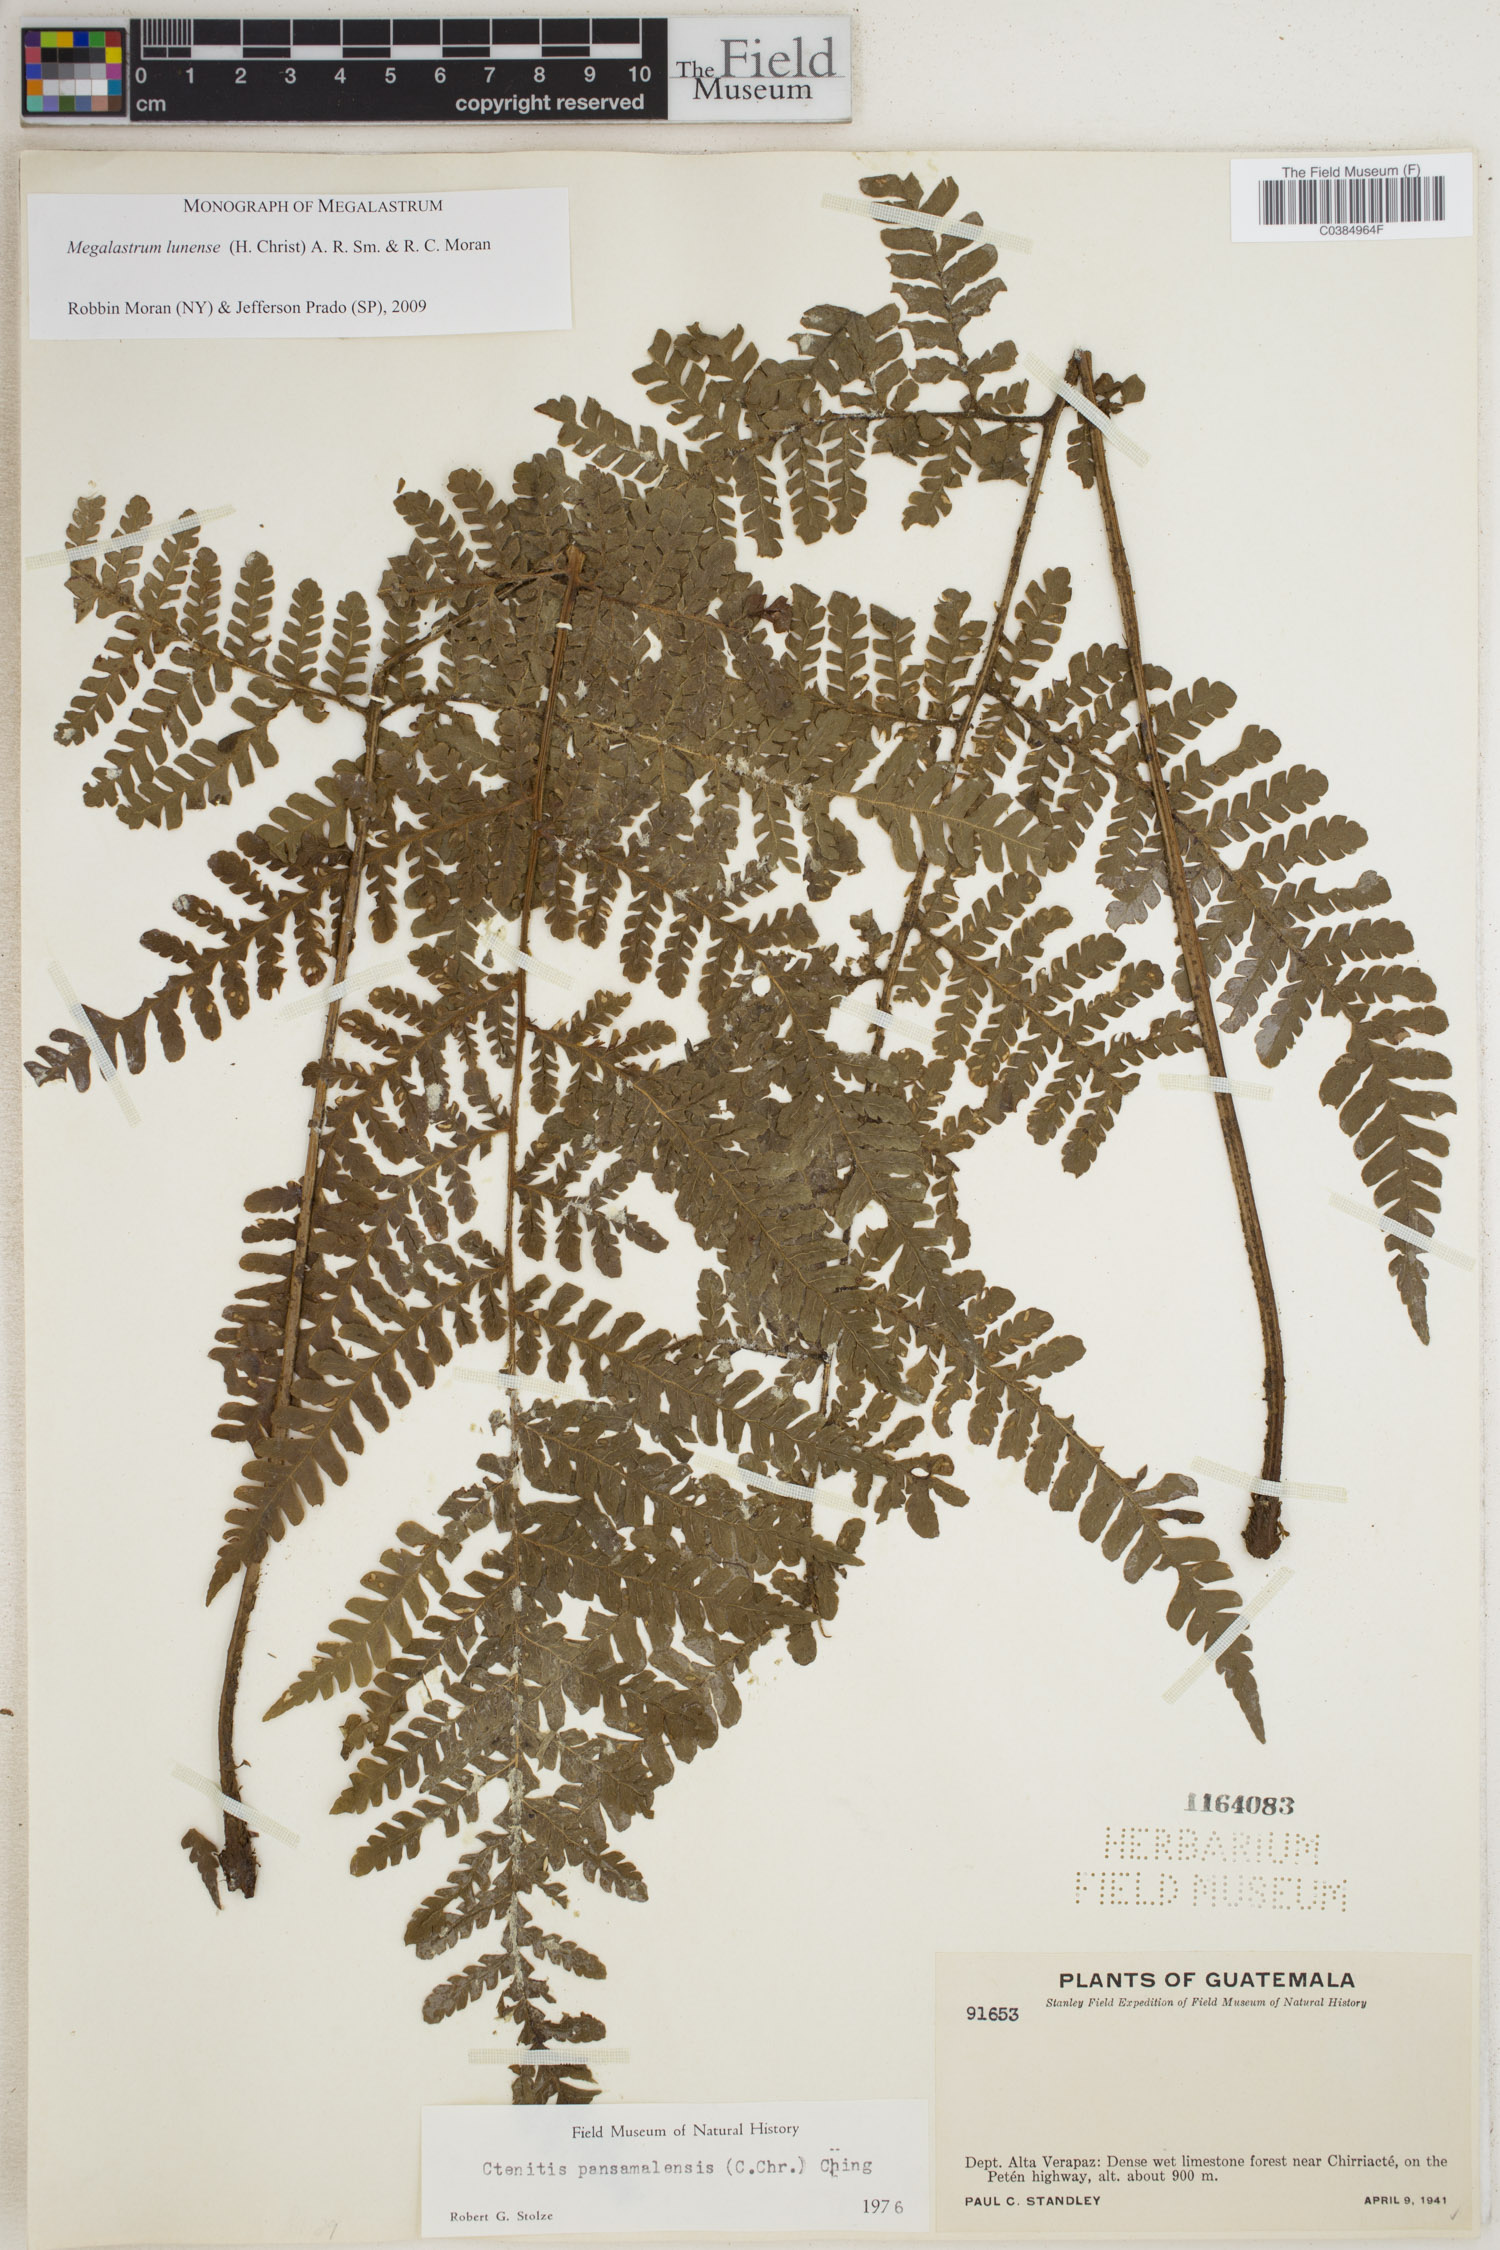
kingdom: Plantae
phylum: Tracheophyta
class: Polypodiopsida
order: Polypodiales
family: Dryopteridaceae
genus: Megalastrum
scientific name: Megalastrum lunense
